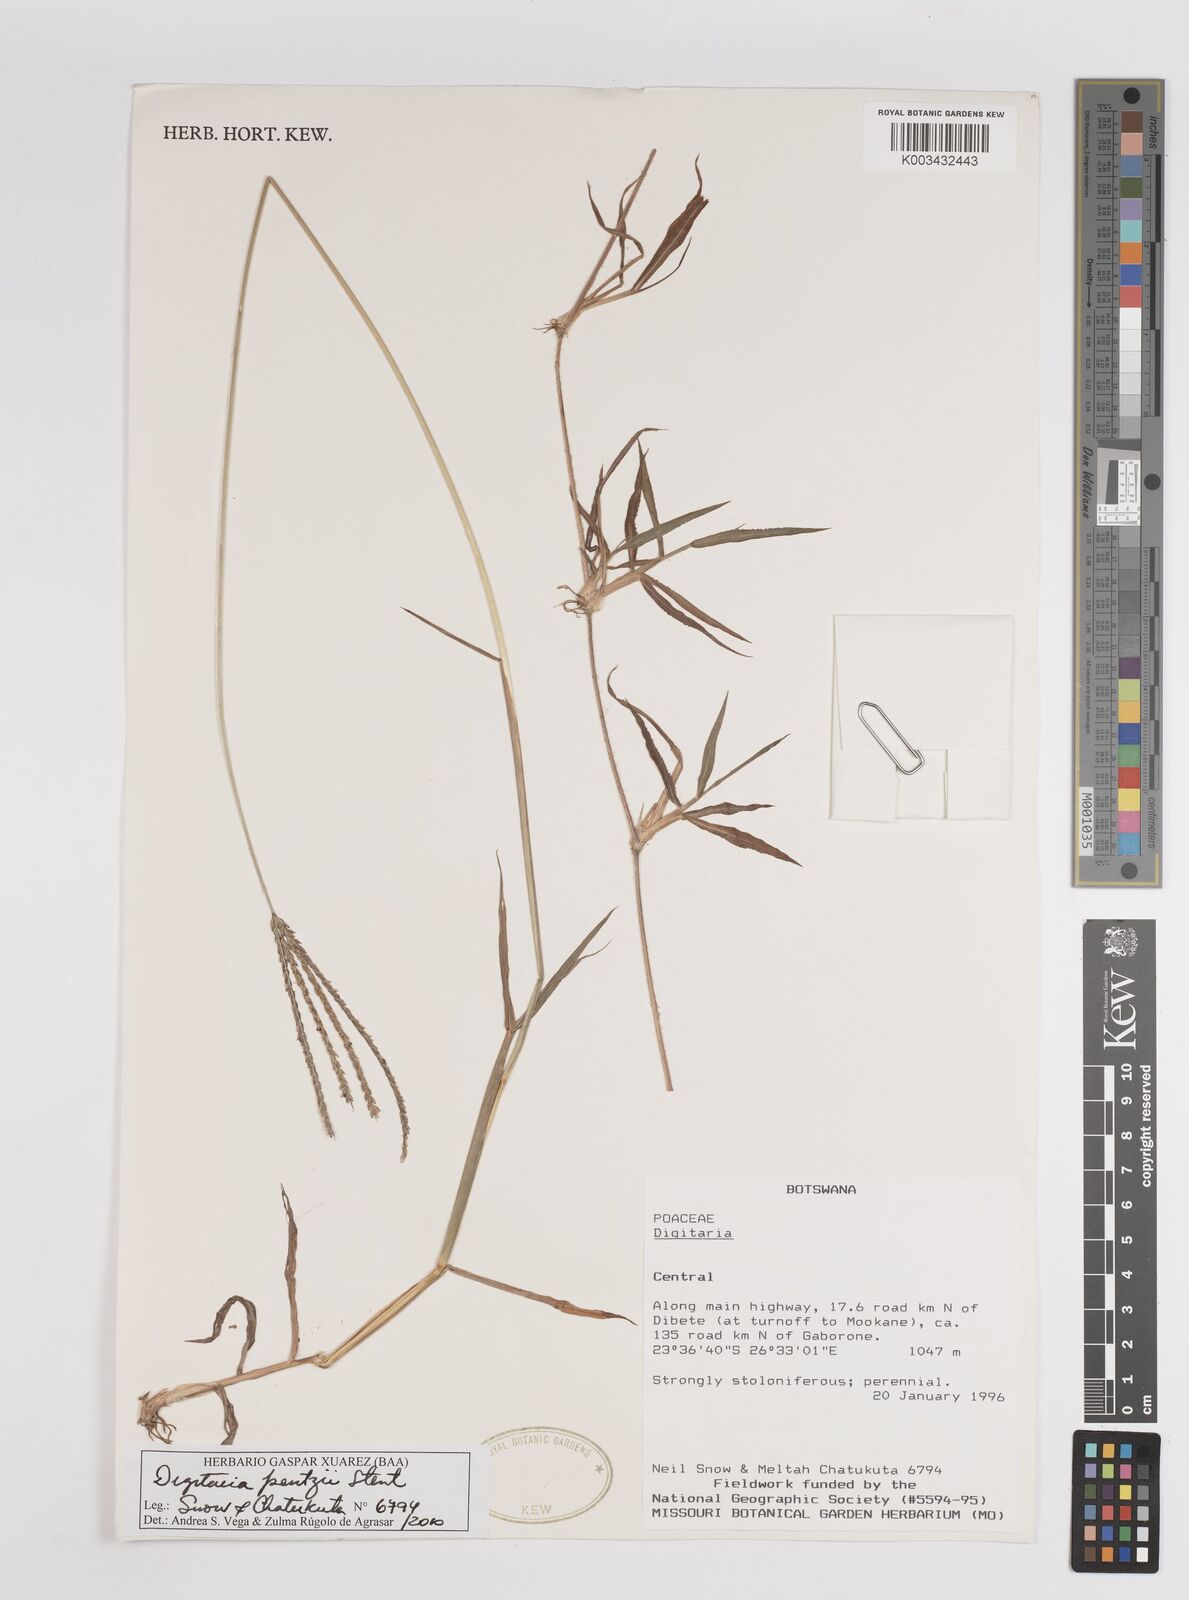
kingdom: Plantae
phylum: Tracheophyta
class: Liliopsida
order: Poales
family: Poaceae
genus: Digitaria
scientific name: Digitaria eriantha
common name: Digitgrass
